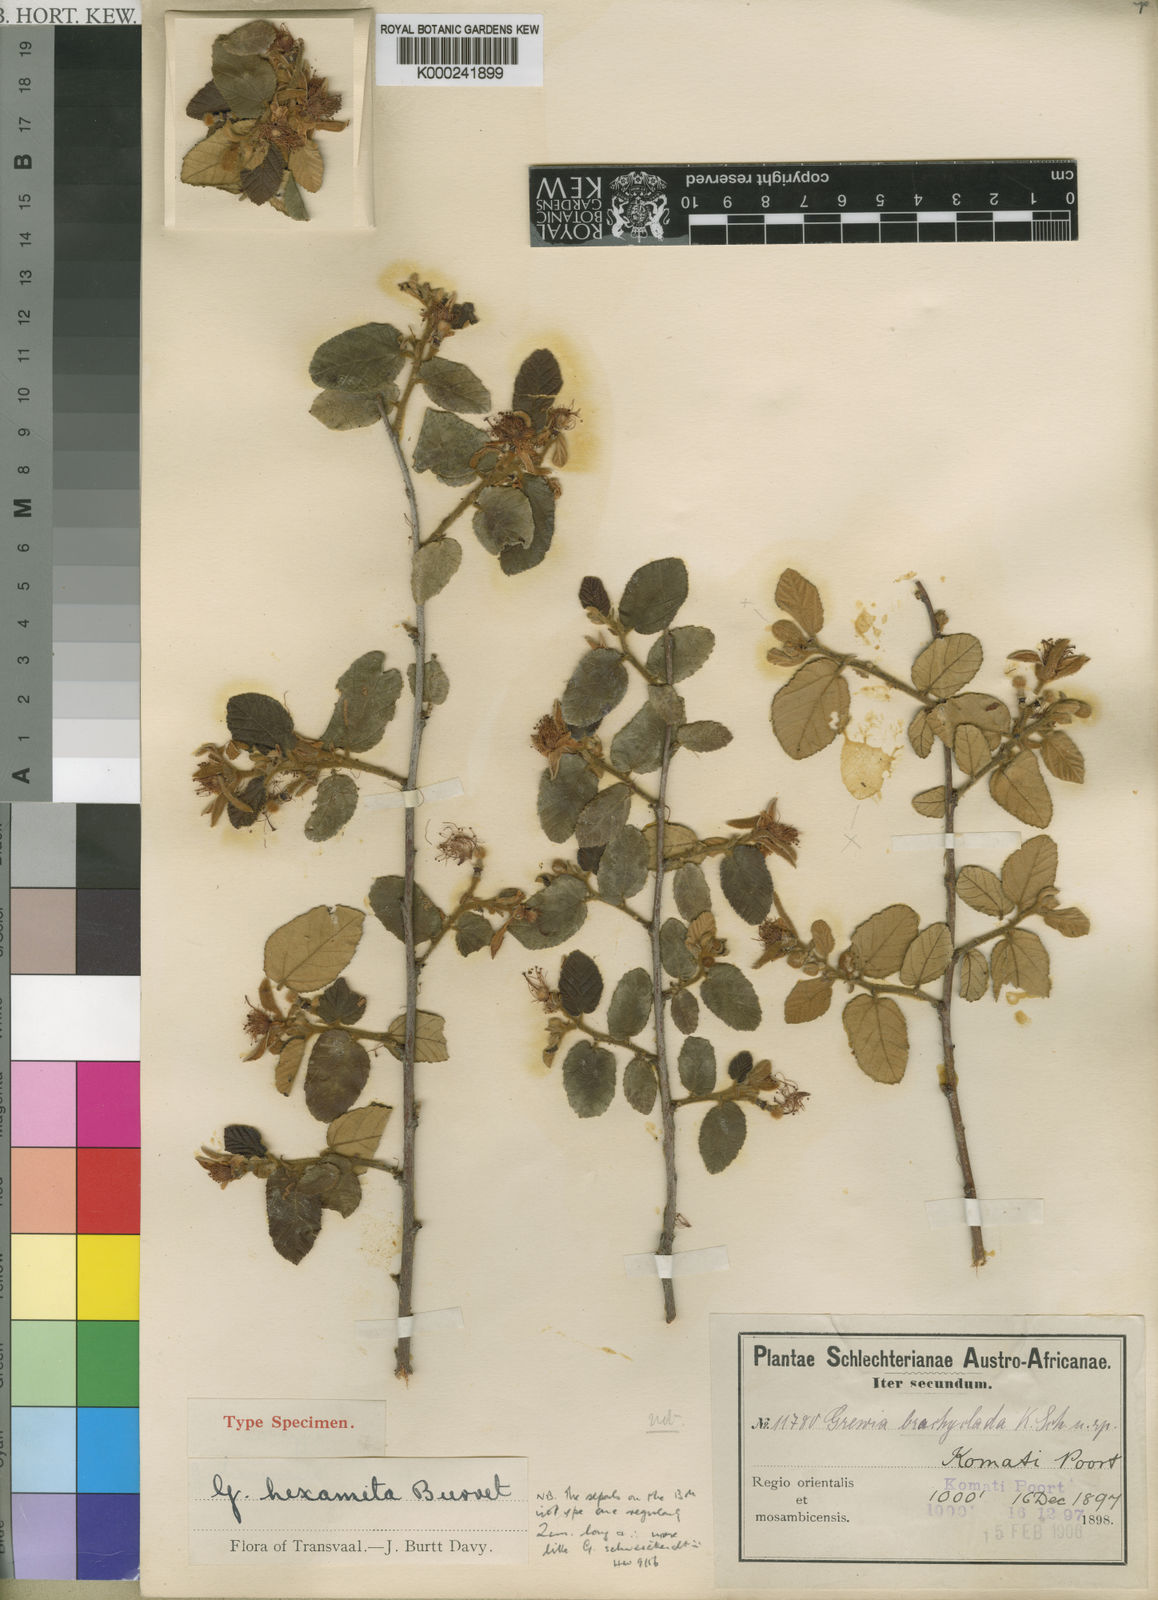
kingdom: Plantae
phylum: Tracheophyta
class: Magnoliopsida
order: Malvales
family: Malvaceae
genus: Grewia
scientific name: Grewia hexamita
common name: Giant raisin
